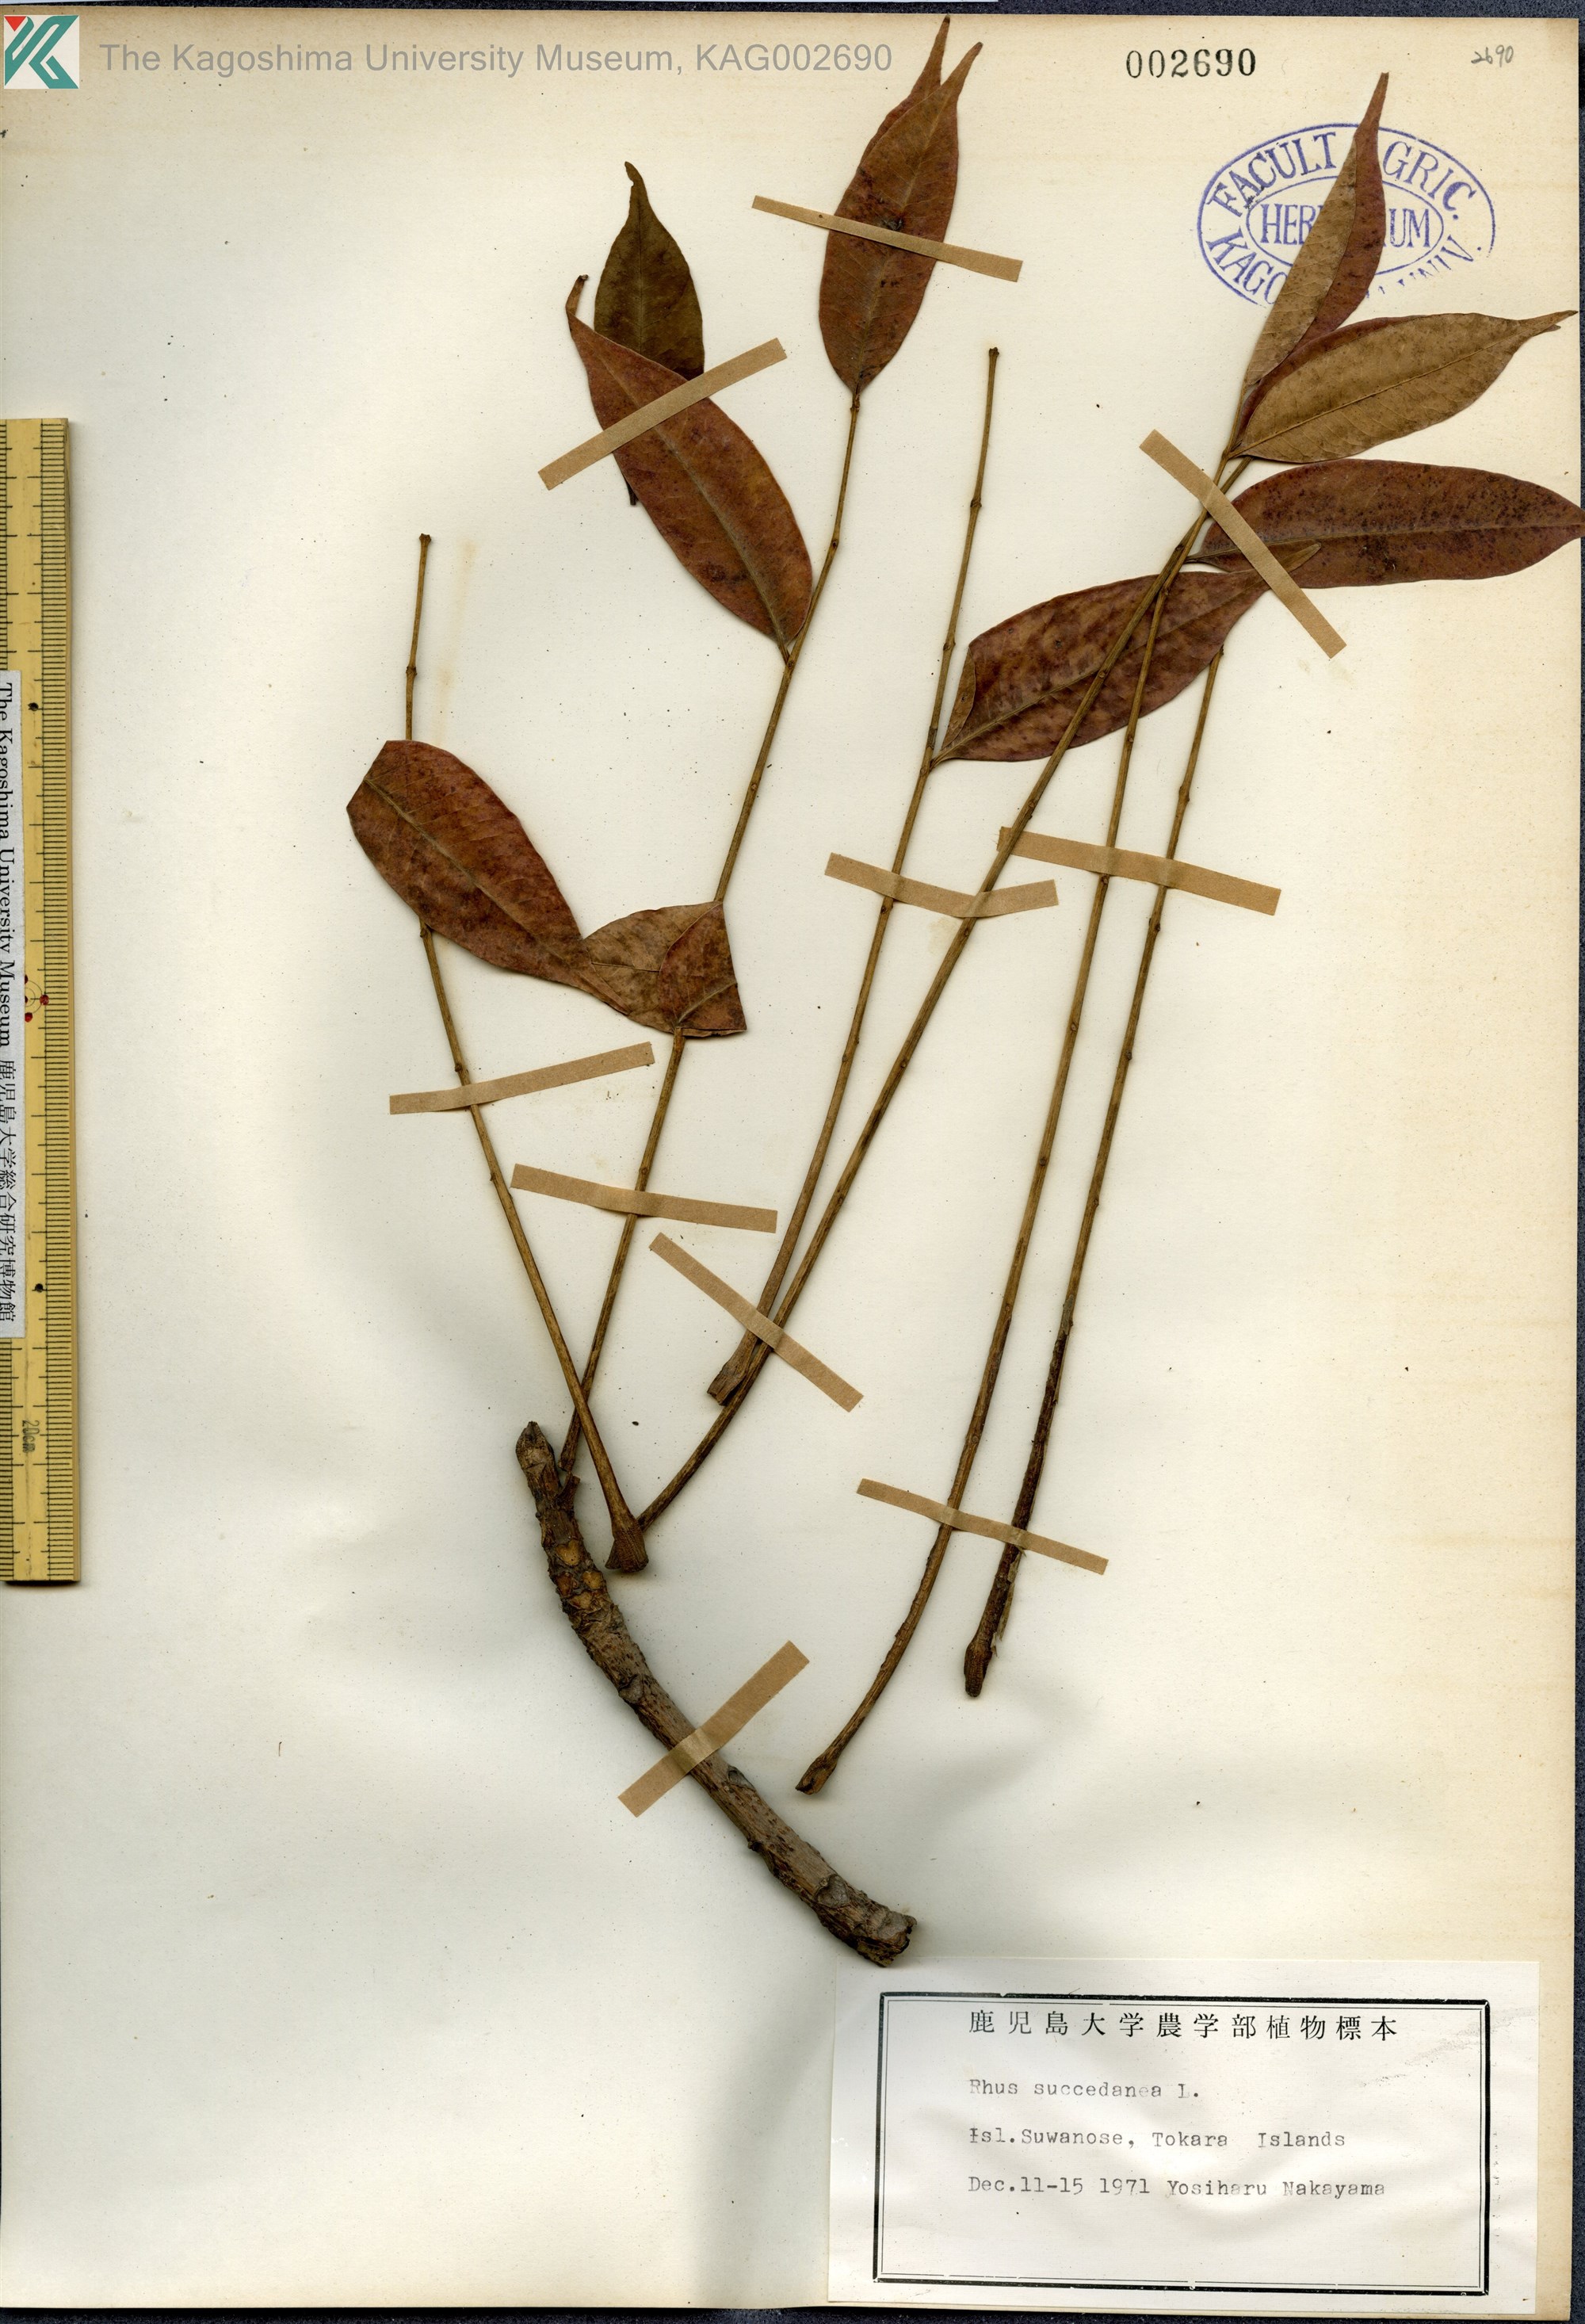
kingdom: Plantae
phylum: Tracheophyta
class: Magnoliopsida
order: Sapindales
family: Anacardiaceae
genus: Toxicodendron
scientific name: Toxicodendron succedaneum
